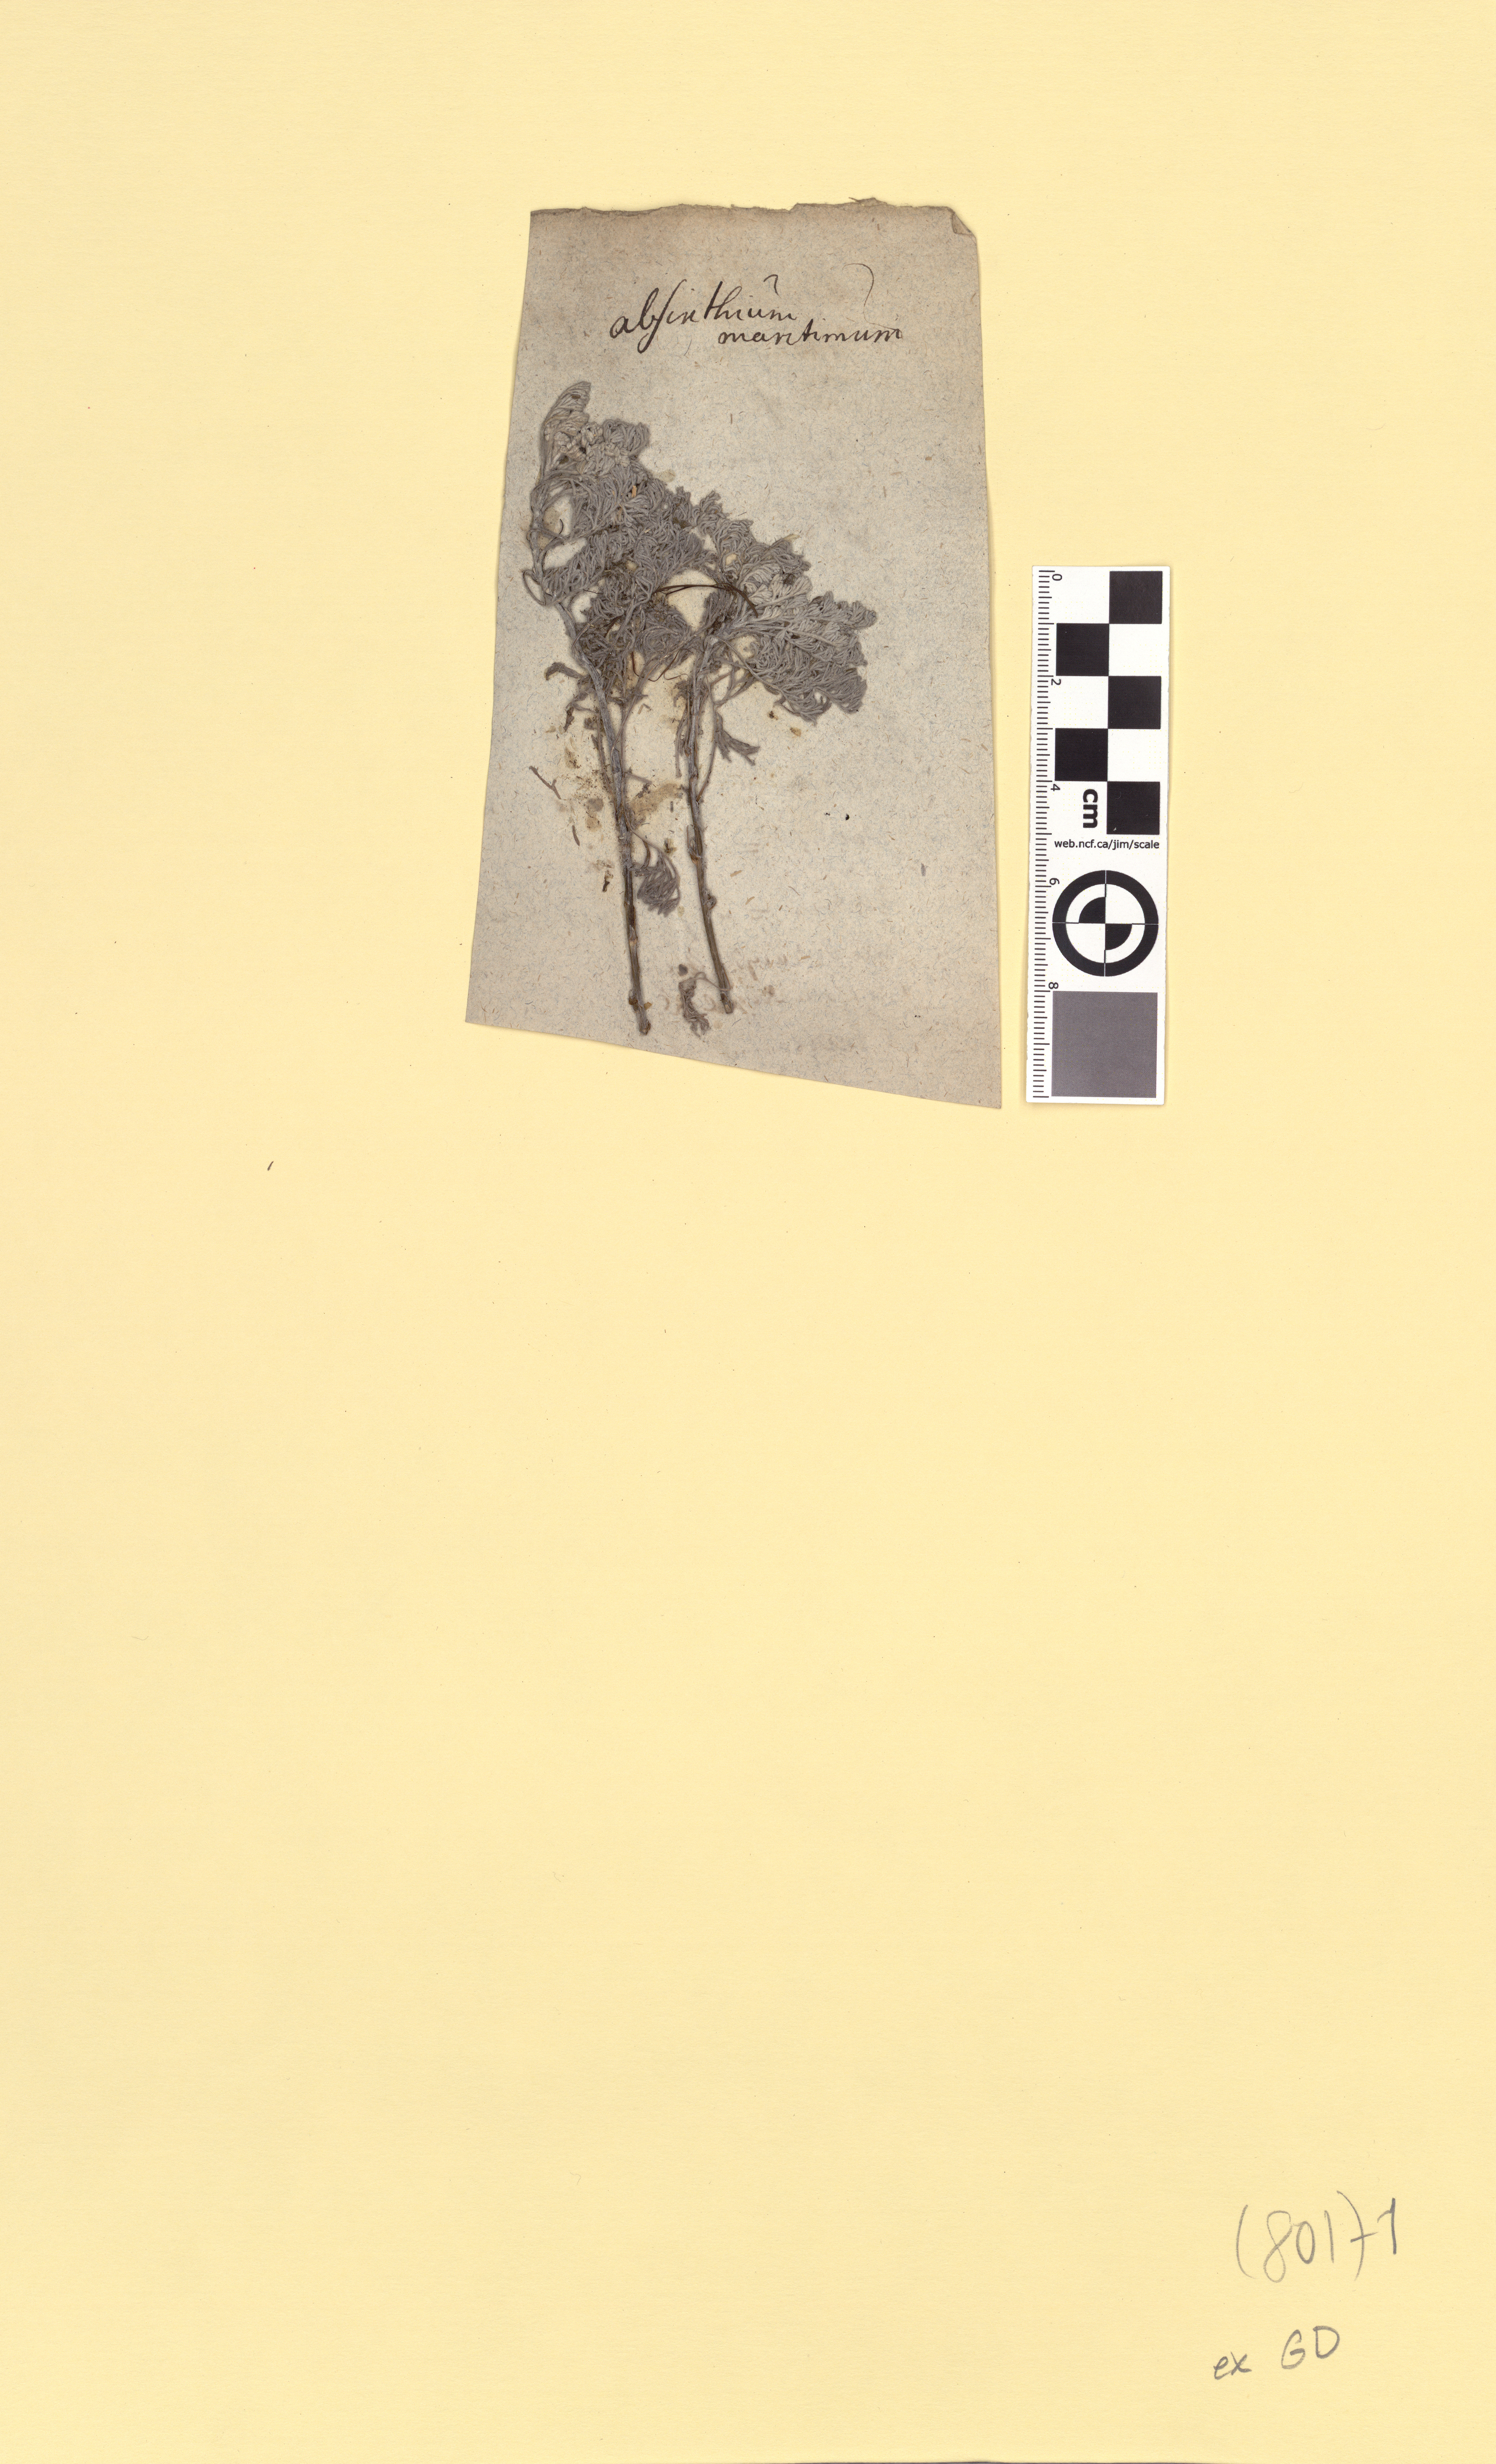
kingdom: Plantae
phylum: Tracheophyta
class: Magnoliopsida
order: Asterales
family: Asteraceae
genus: Artemisia
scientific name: Artemisia maritima
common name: Wormseed
